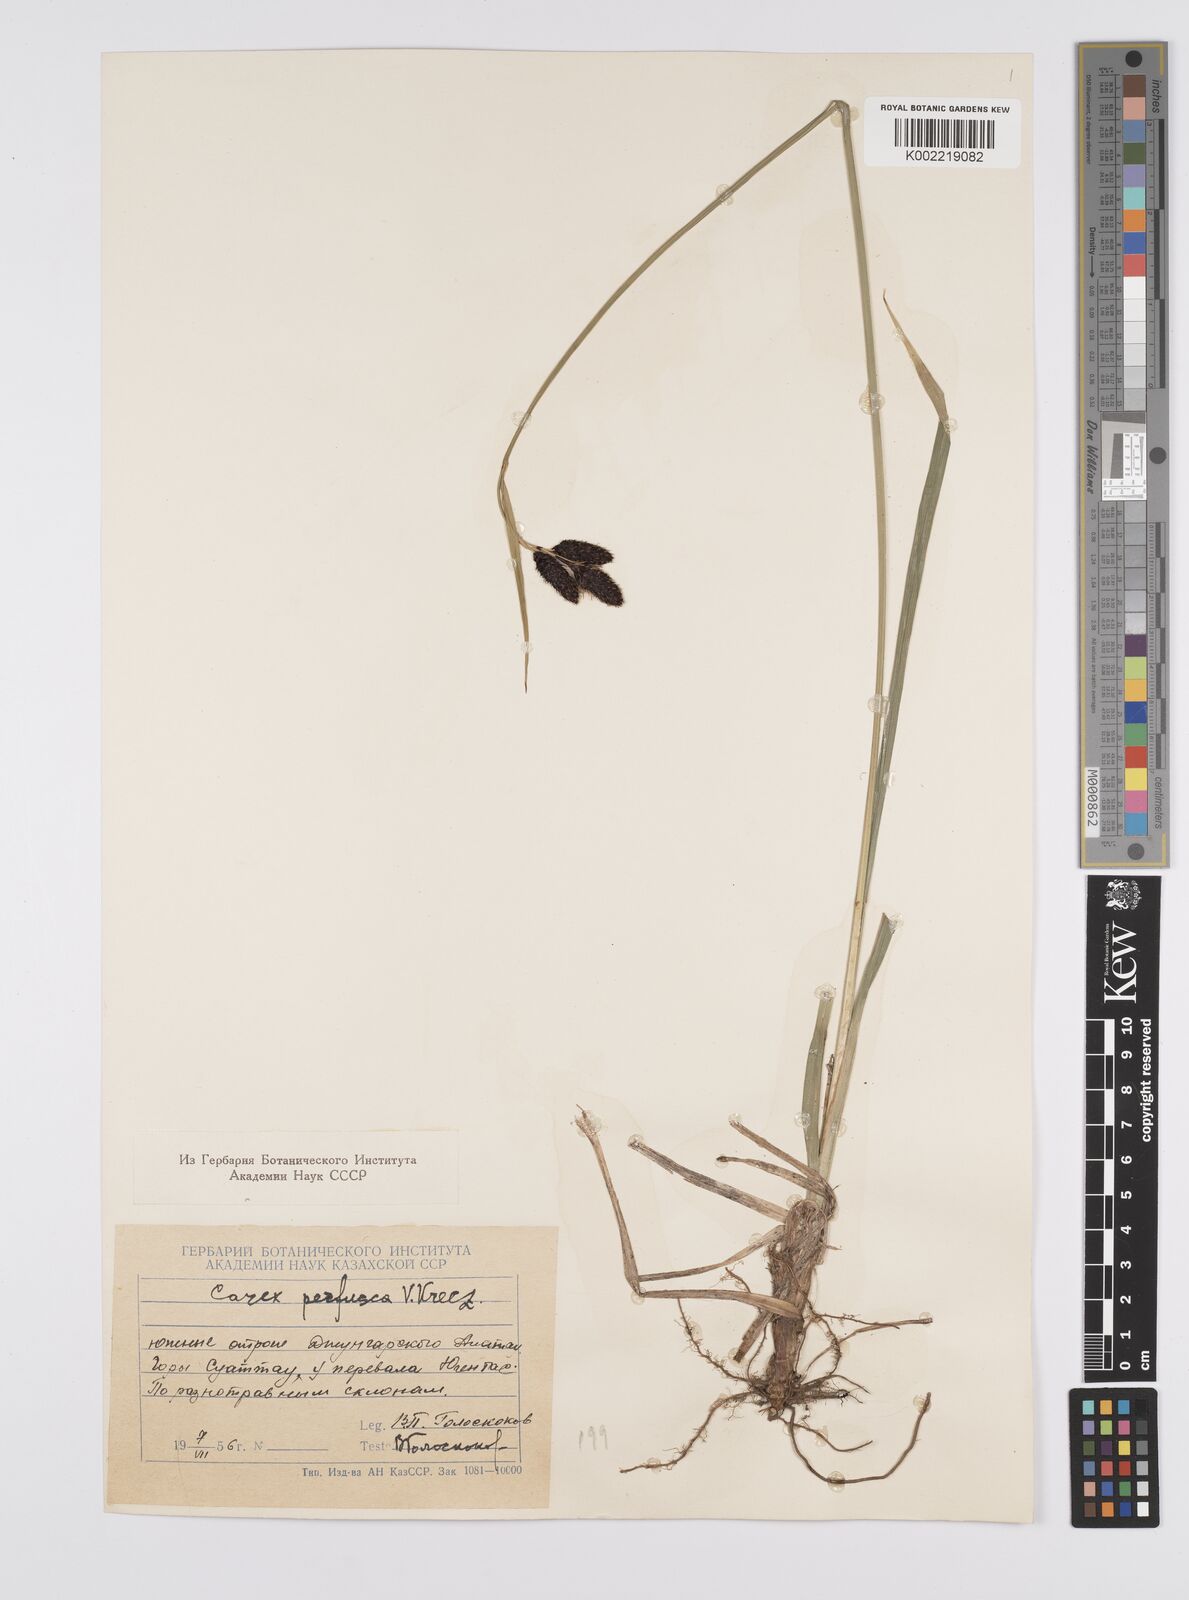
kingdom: Plantae
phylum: Tracheophyta
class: Liliopsida
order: Poales
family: Cyperaceae
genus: Carex
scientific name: Carex aterrima
